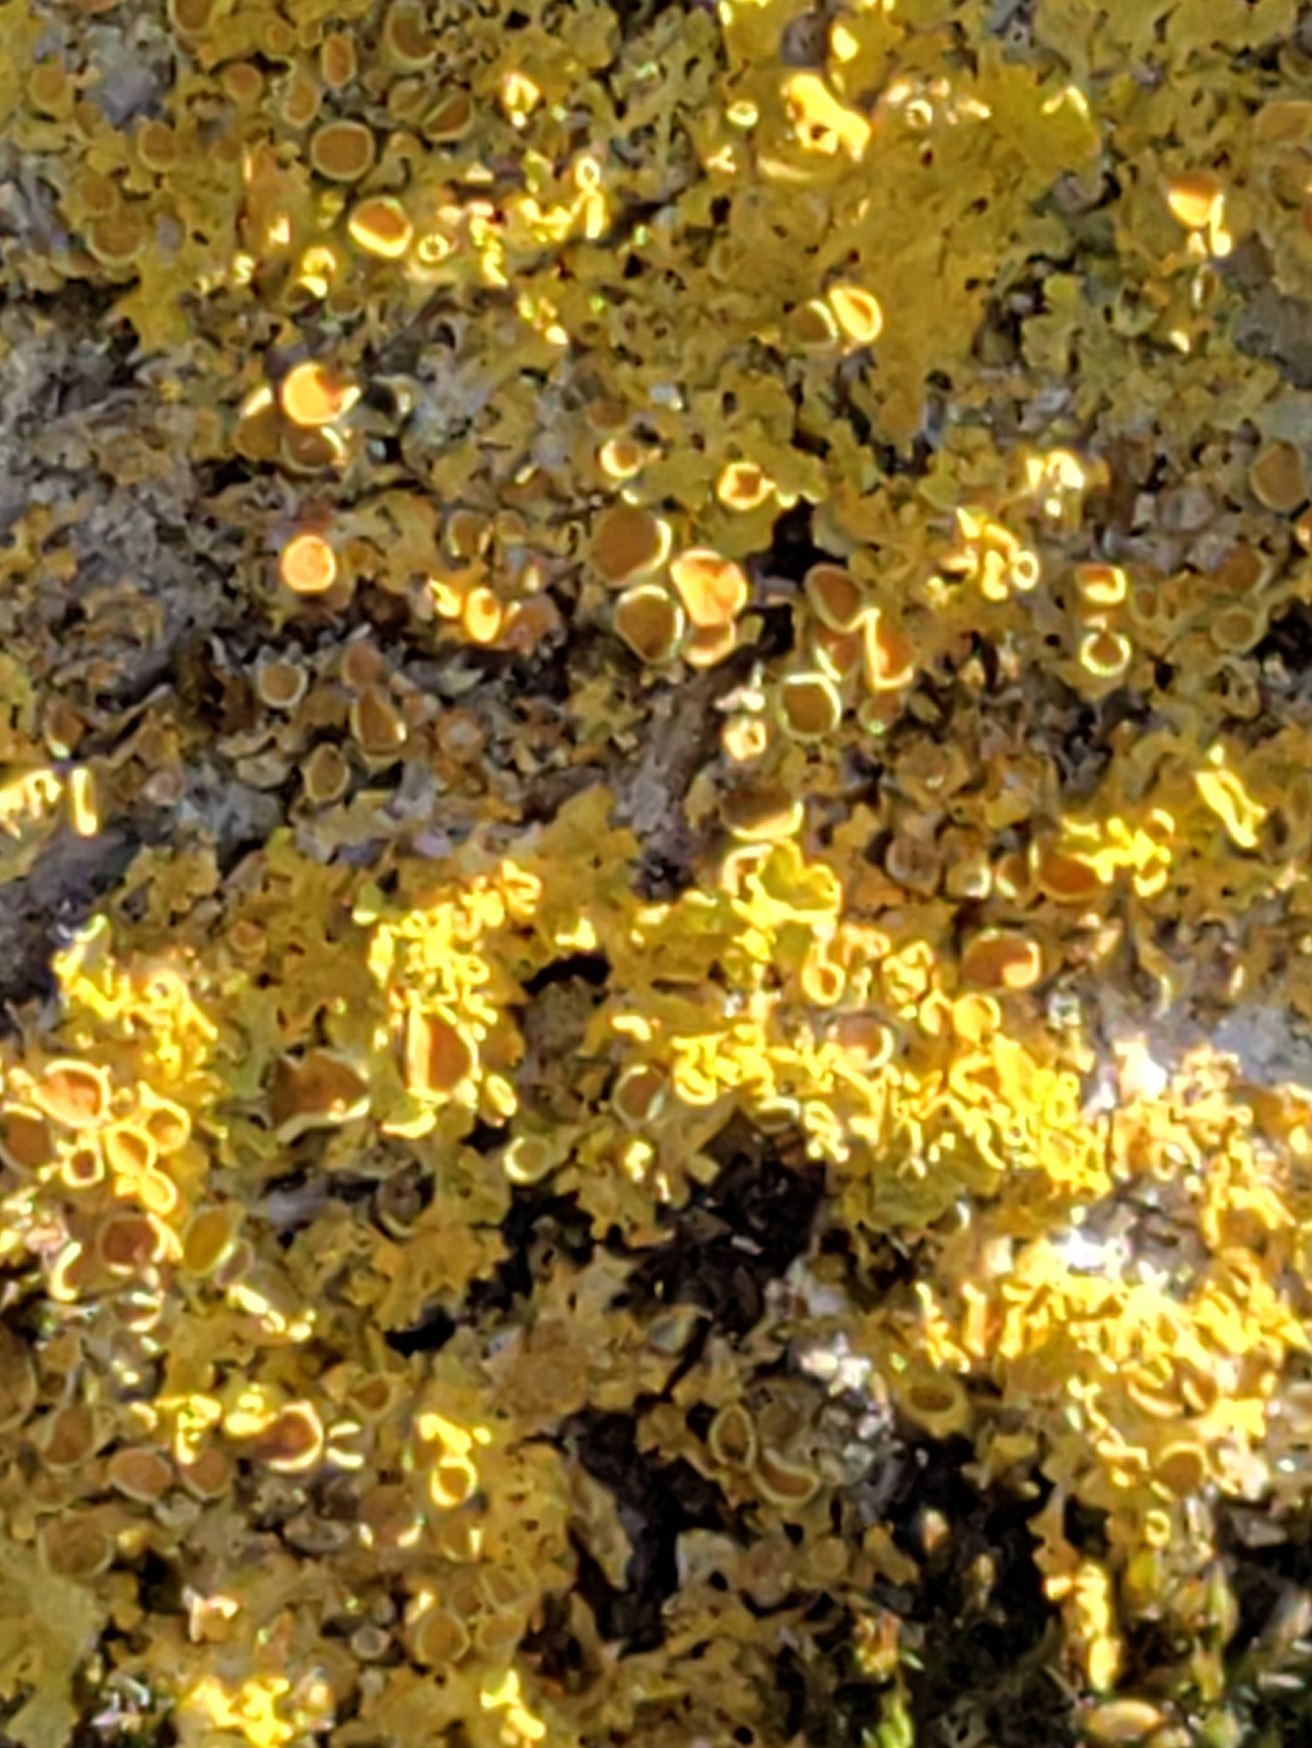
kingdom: Fungi
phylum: Ascomycota
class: Lecanoromycetes
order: Teloschistales
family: Teloschistaceae
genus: Xanthoria
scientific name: Xanthoria parietina
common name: Almindelig væggelav
